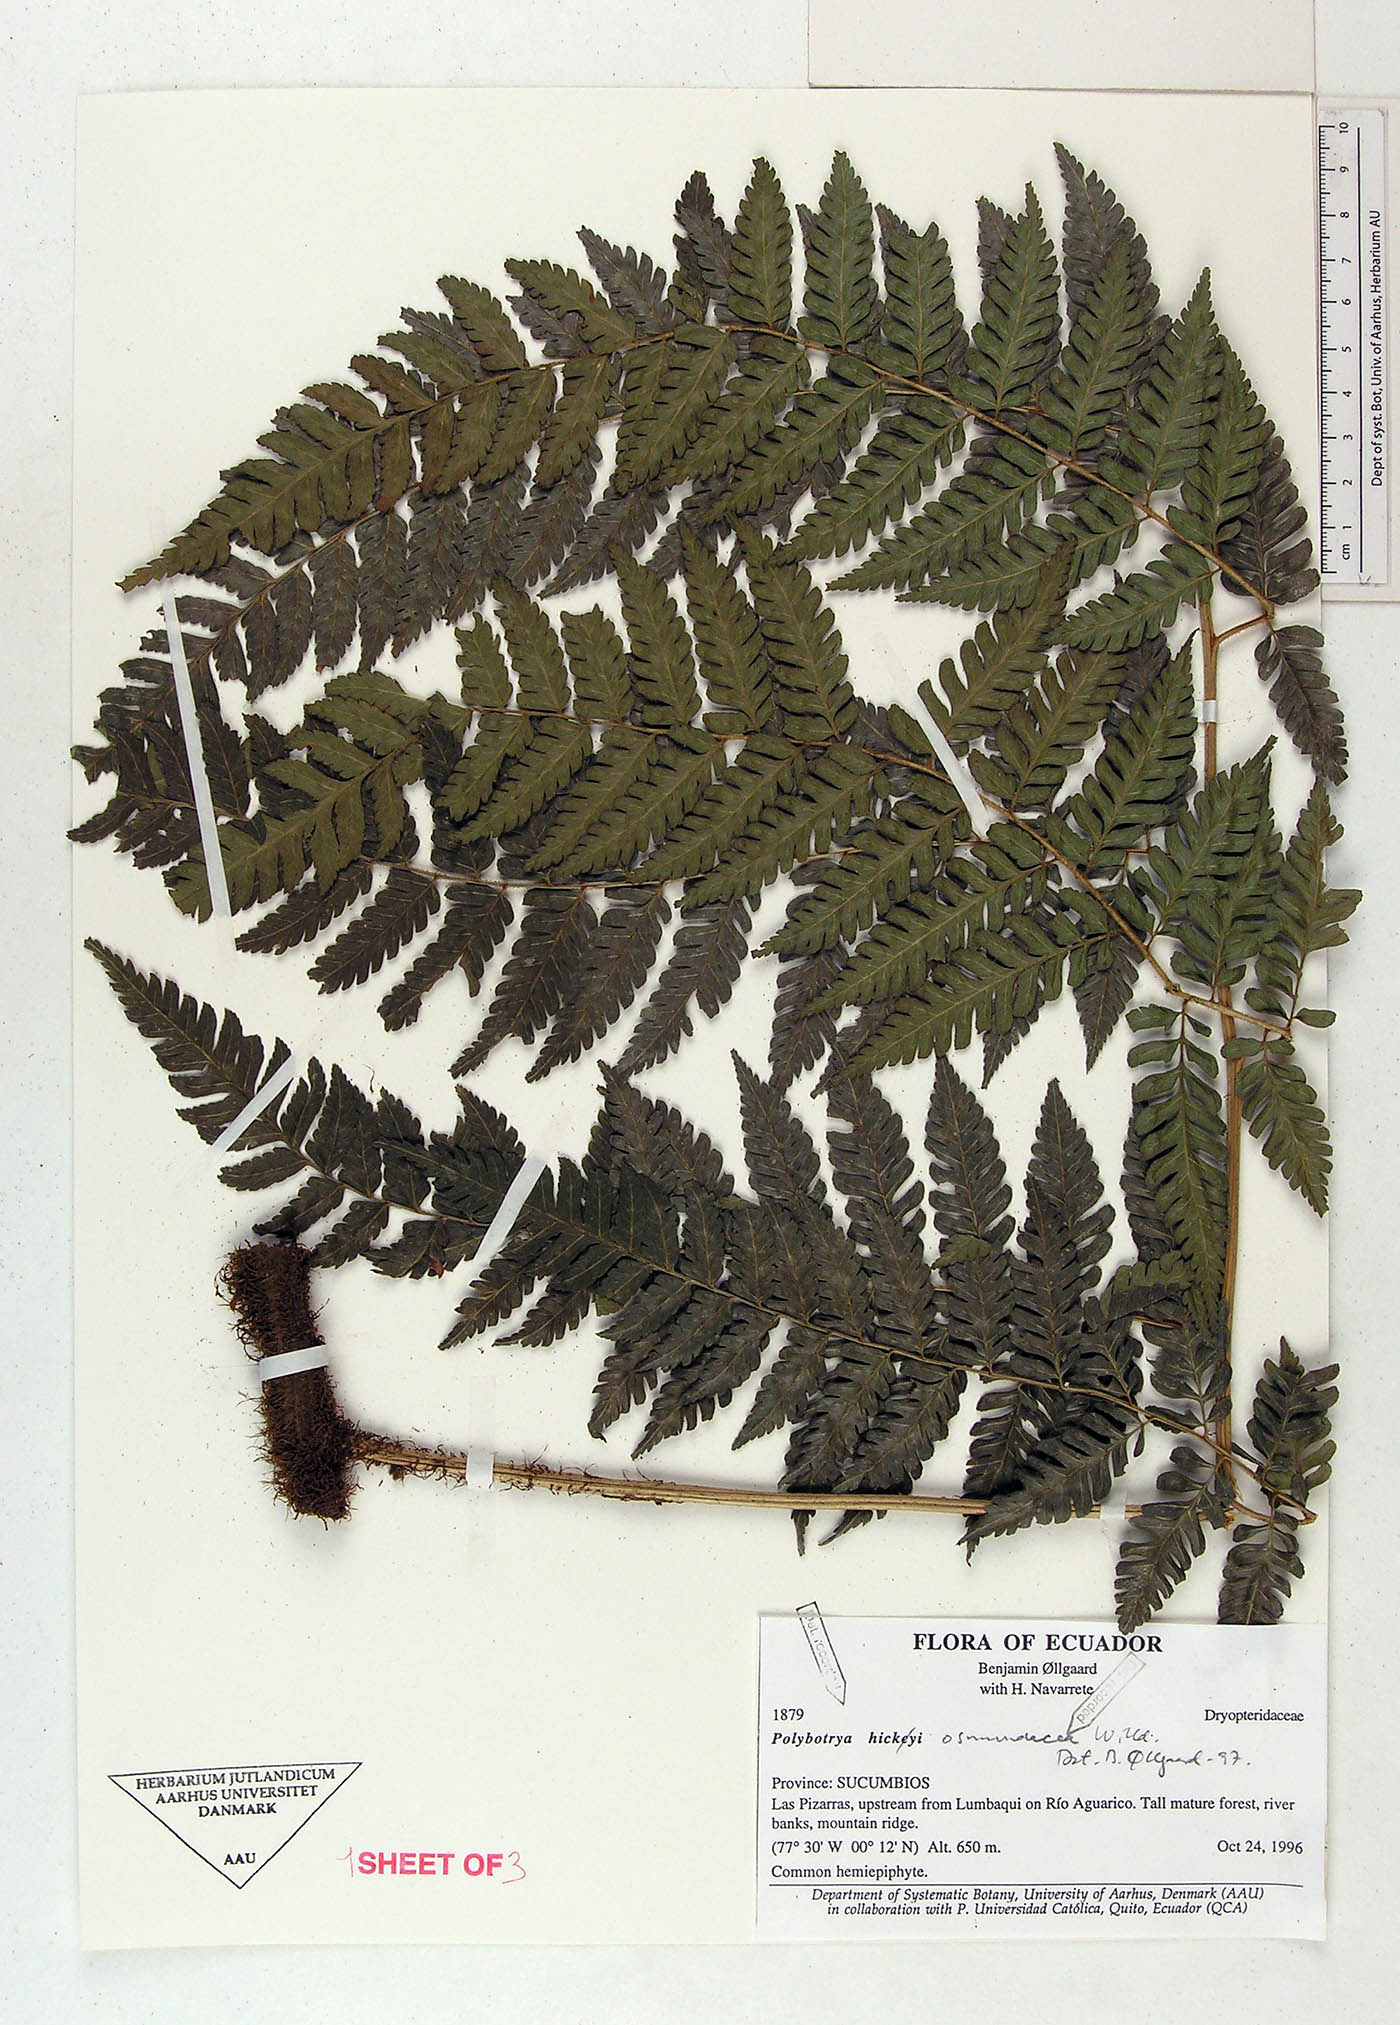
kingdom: Plantae
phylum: Tracheophyta
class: Polypodiopsida
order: Polypodiales
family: Dryopteridaceae
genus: Polybotrya
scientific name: Polybotrya osmundacea
